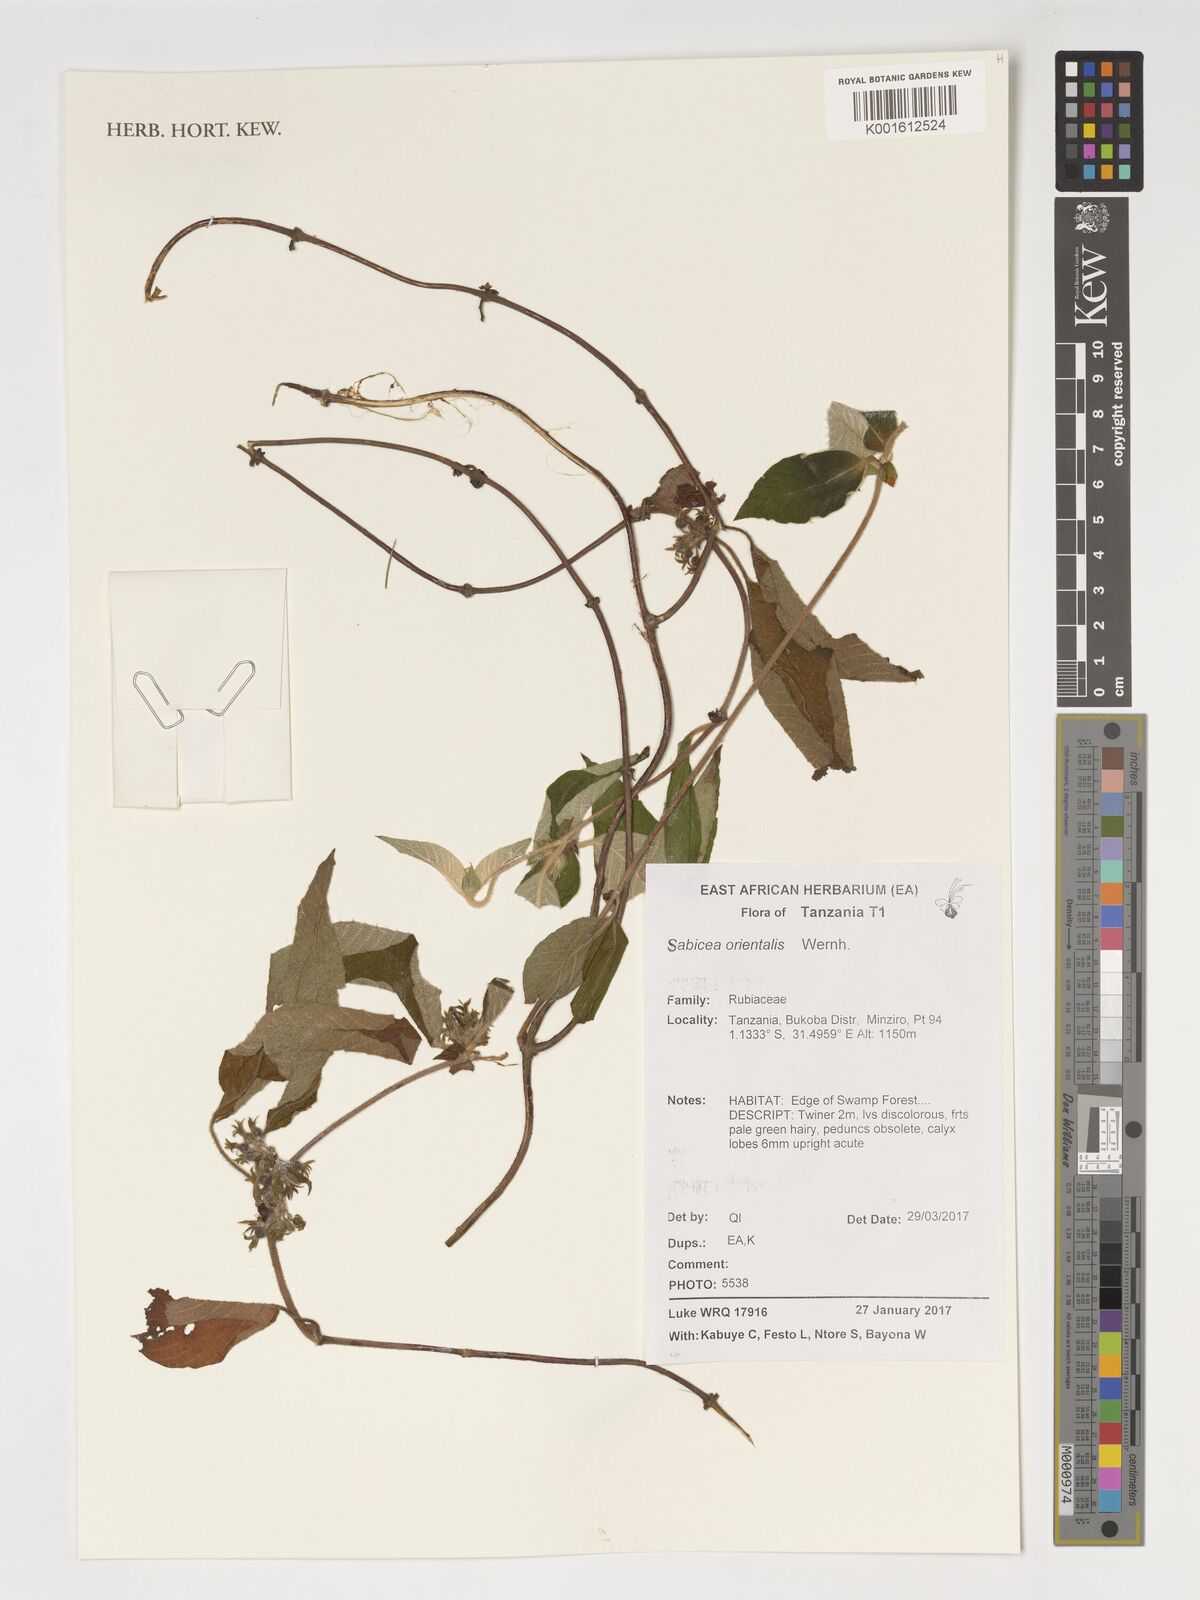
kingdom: Plantae
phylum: Tracheophyta
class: Magnoliopsida
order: Gentianales
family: Rubiaceae
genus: Sabicea
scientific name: Sabicea orientalis
